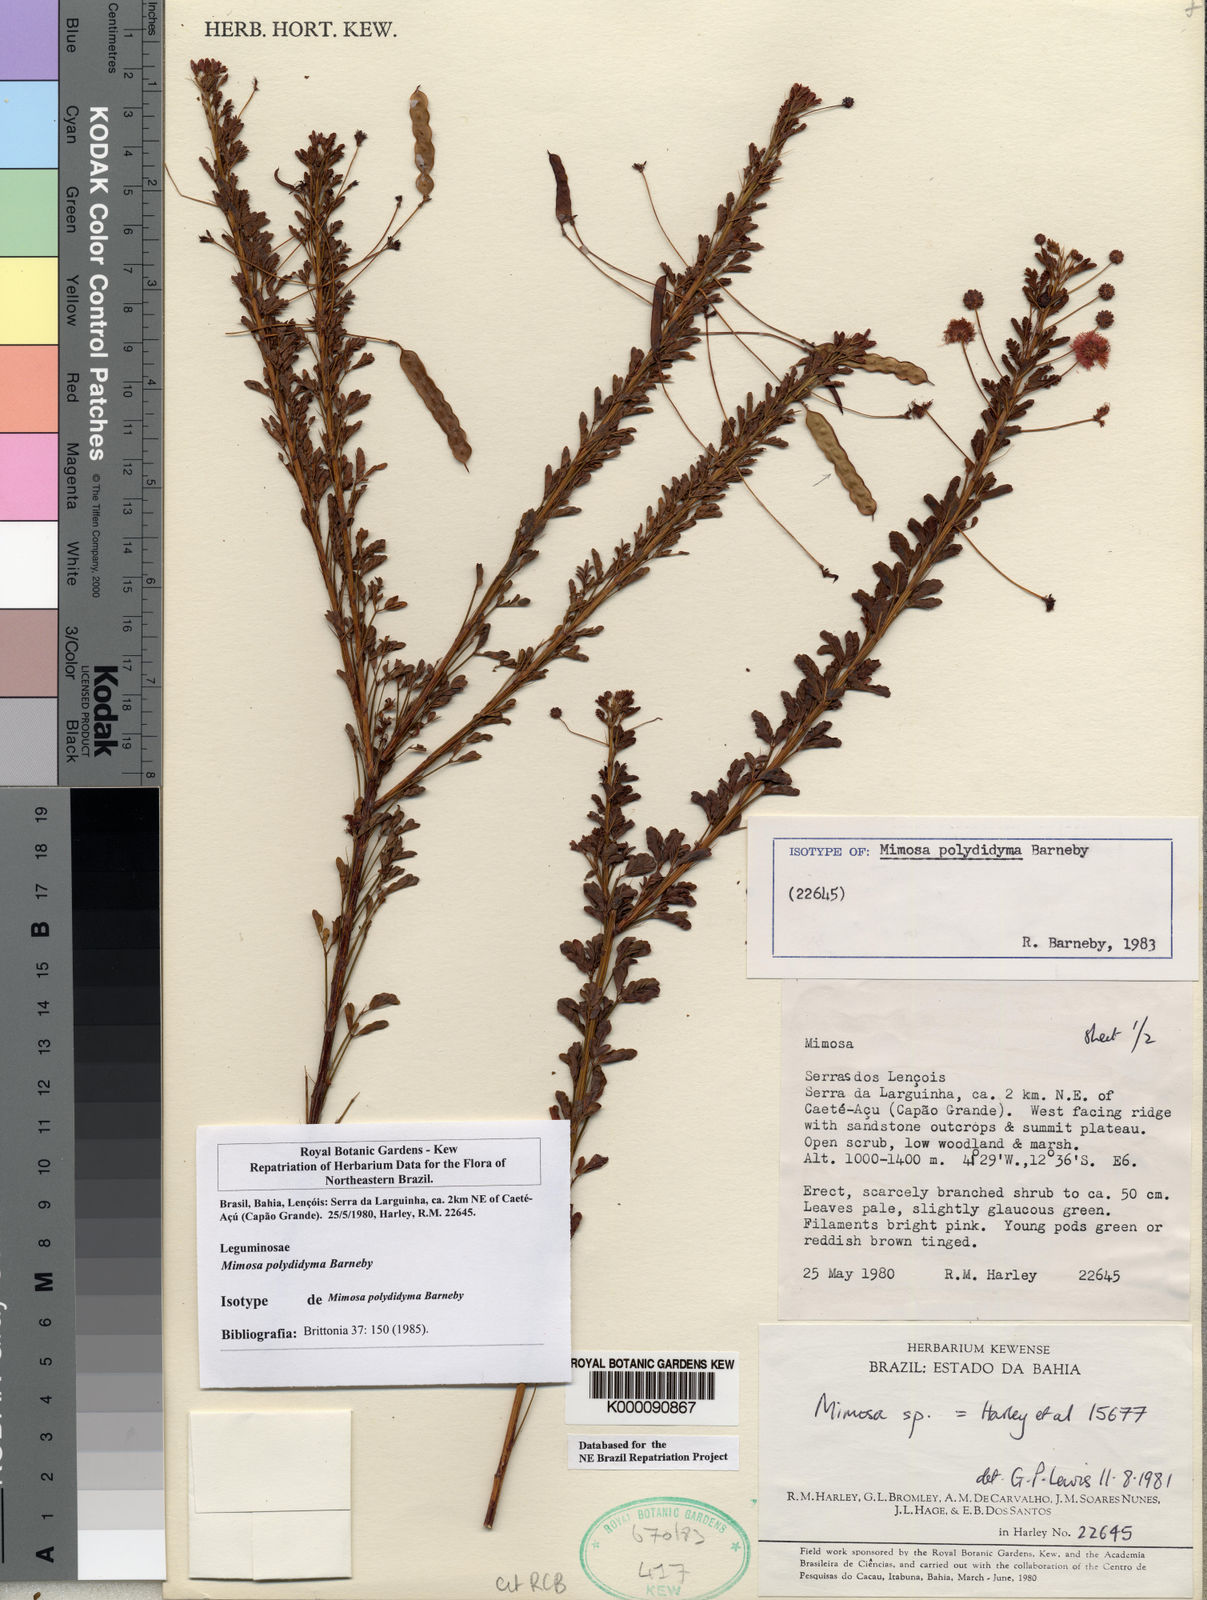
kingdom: Plantae
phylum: Tracheophyta
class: Magnoliopsida
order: Fabales
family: Fabaceae
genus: Mimosa
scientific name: Mimosa polydidyma
